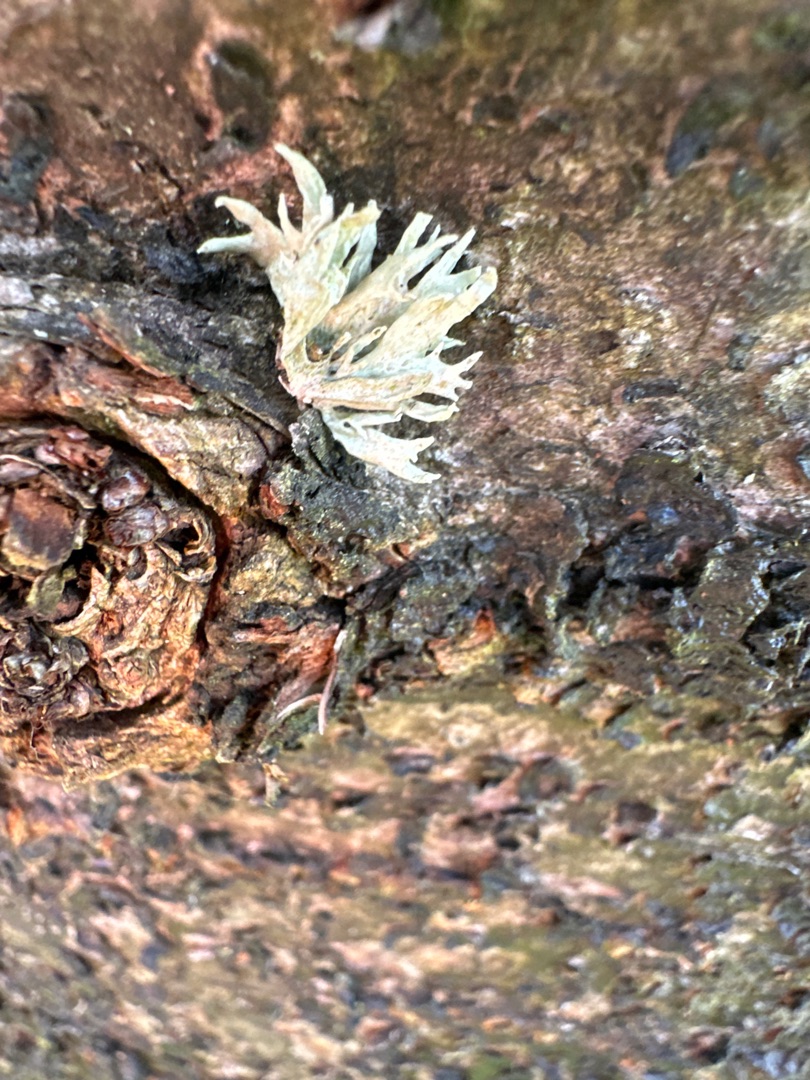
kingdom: Fungi
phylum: Ascomycota
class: Lecanoromycetes
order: Lecanorales
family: Ramalinaceae
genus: Ramalina
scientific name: Ramalina farinacea
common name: Melet grenlav
